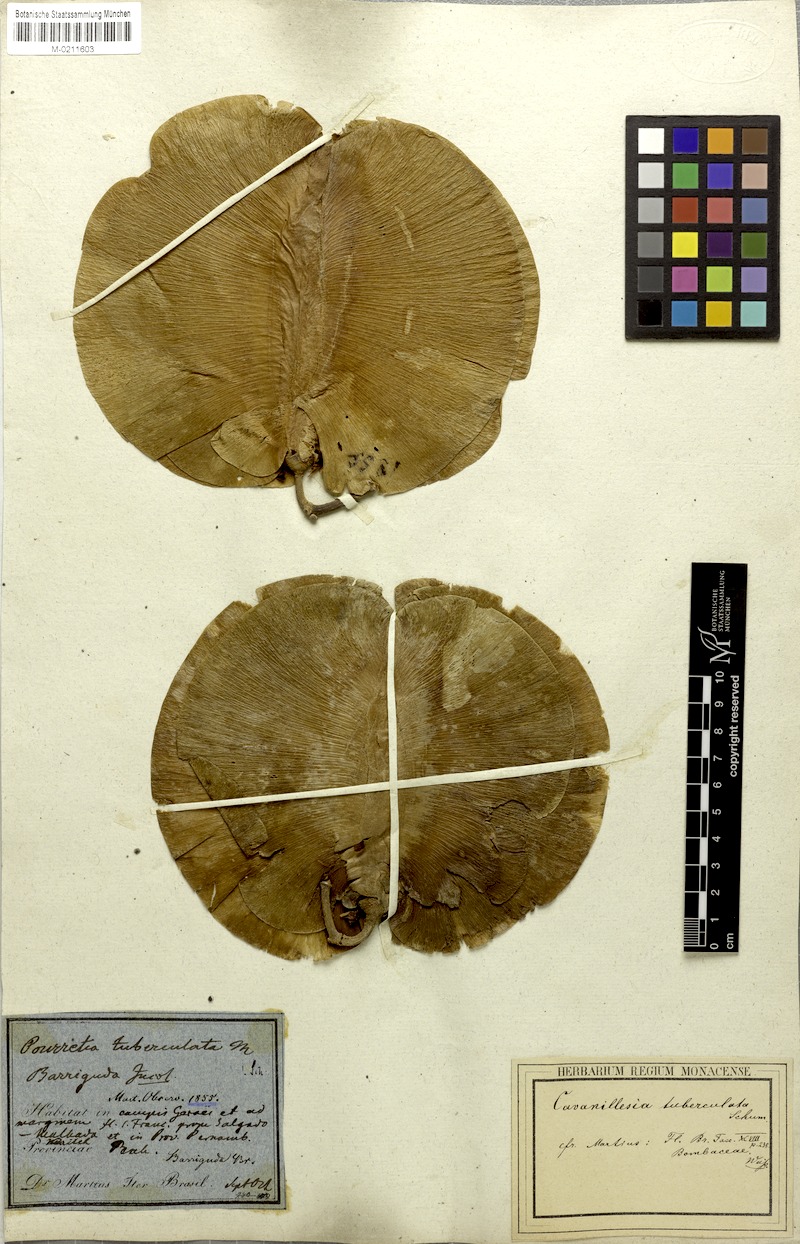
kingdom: Plantae
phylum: Tracheophyta
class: Magnoliopsida
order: Malvales
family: Malvaceae
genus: Cavanillesia
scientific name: Cavanillesia umbellata
